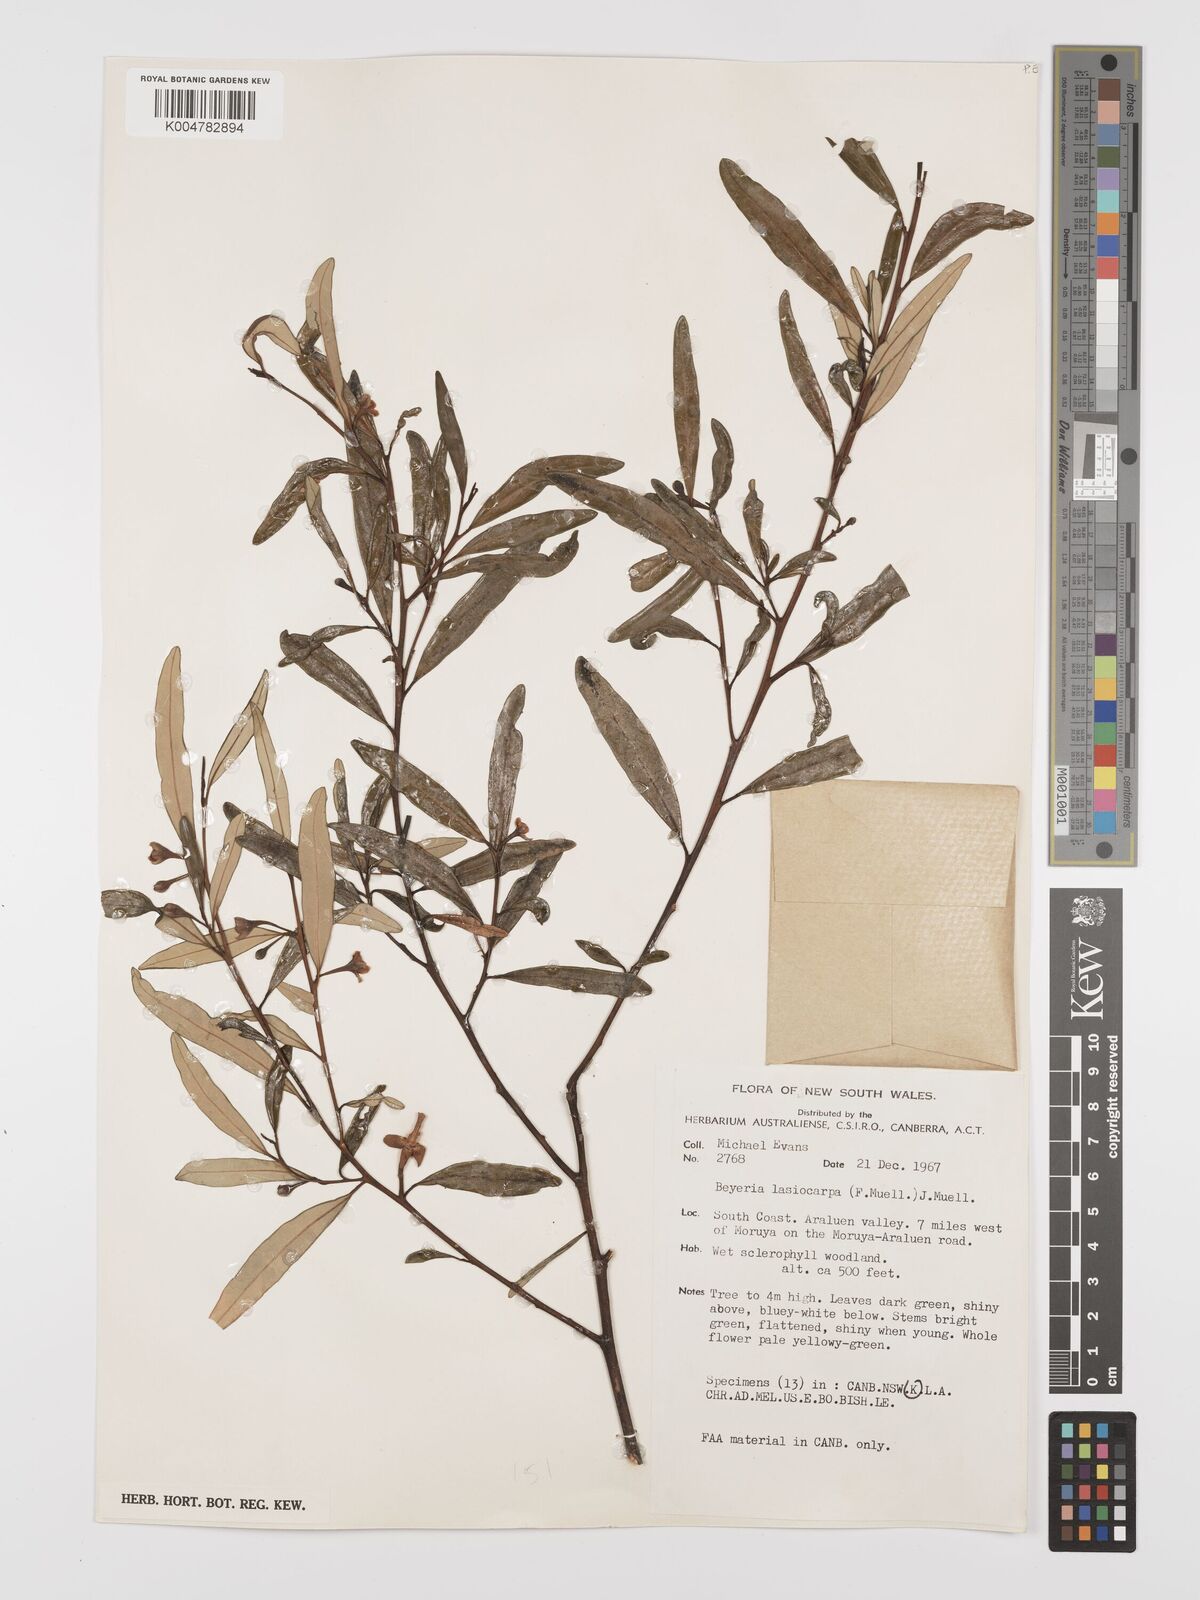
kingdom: Plantae
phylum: Tracheophyta
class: Magnoliopsida
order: Malpighiales
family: Euphorbiaceae
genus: Beyeria
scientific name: Beyeria lasiocarpa
